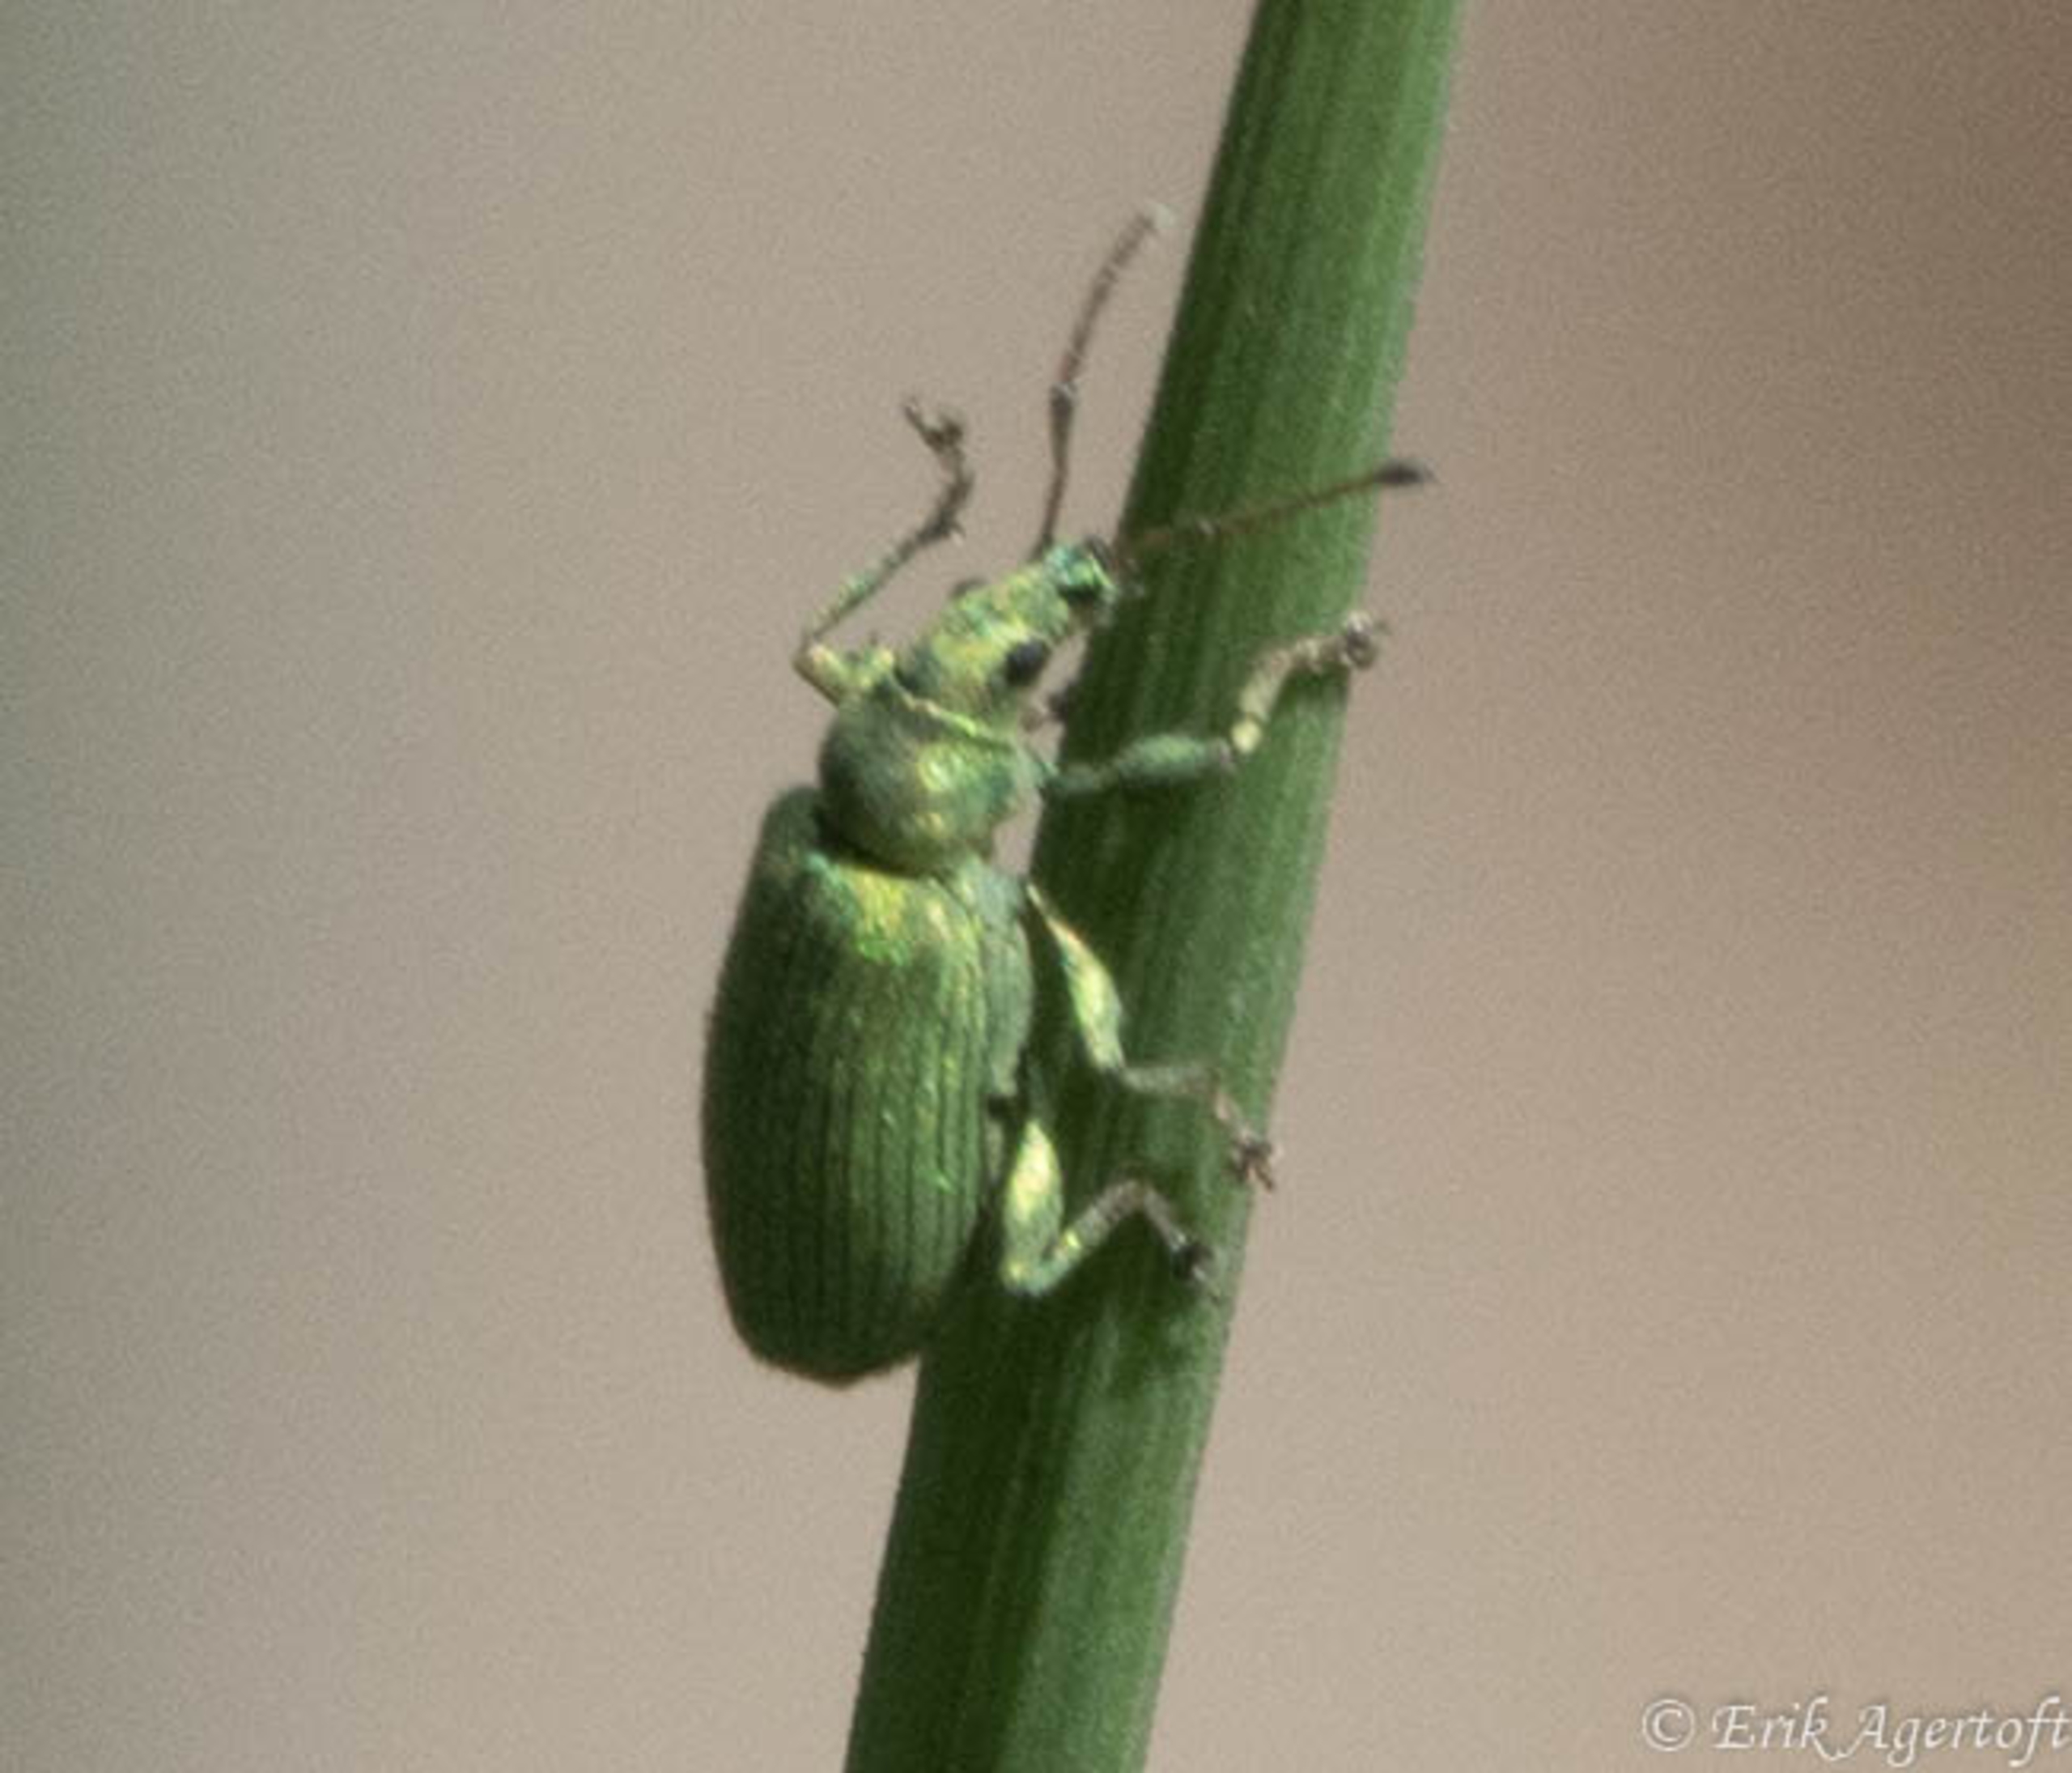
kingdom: Animalia
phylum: Arthropoda
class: Insecta
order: Coleoptera
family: Curculionidae
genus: Phyllobius
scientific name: Phyllobius maculicornis
